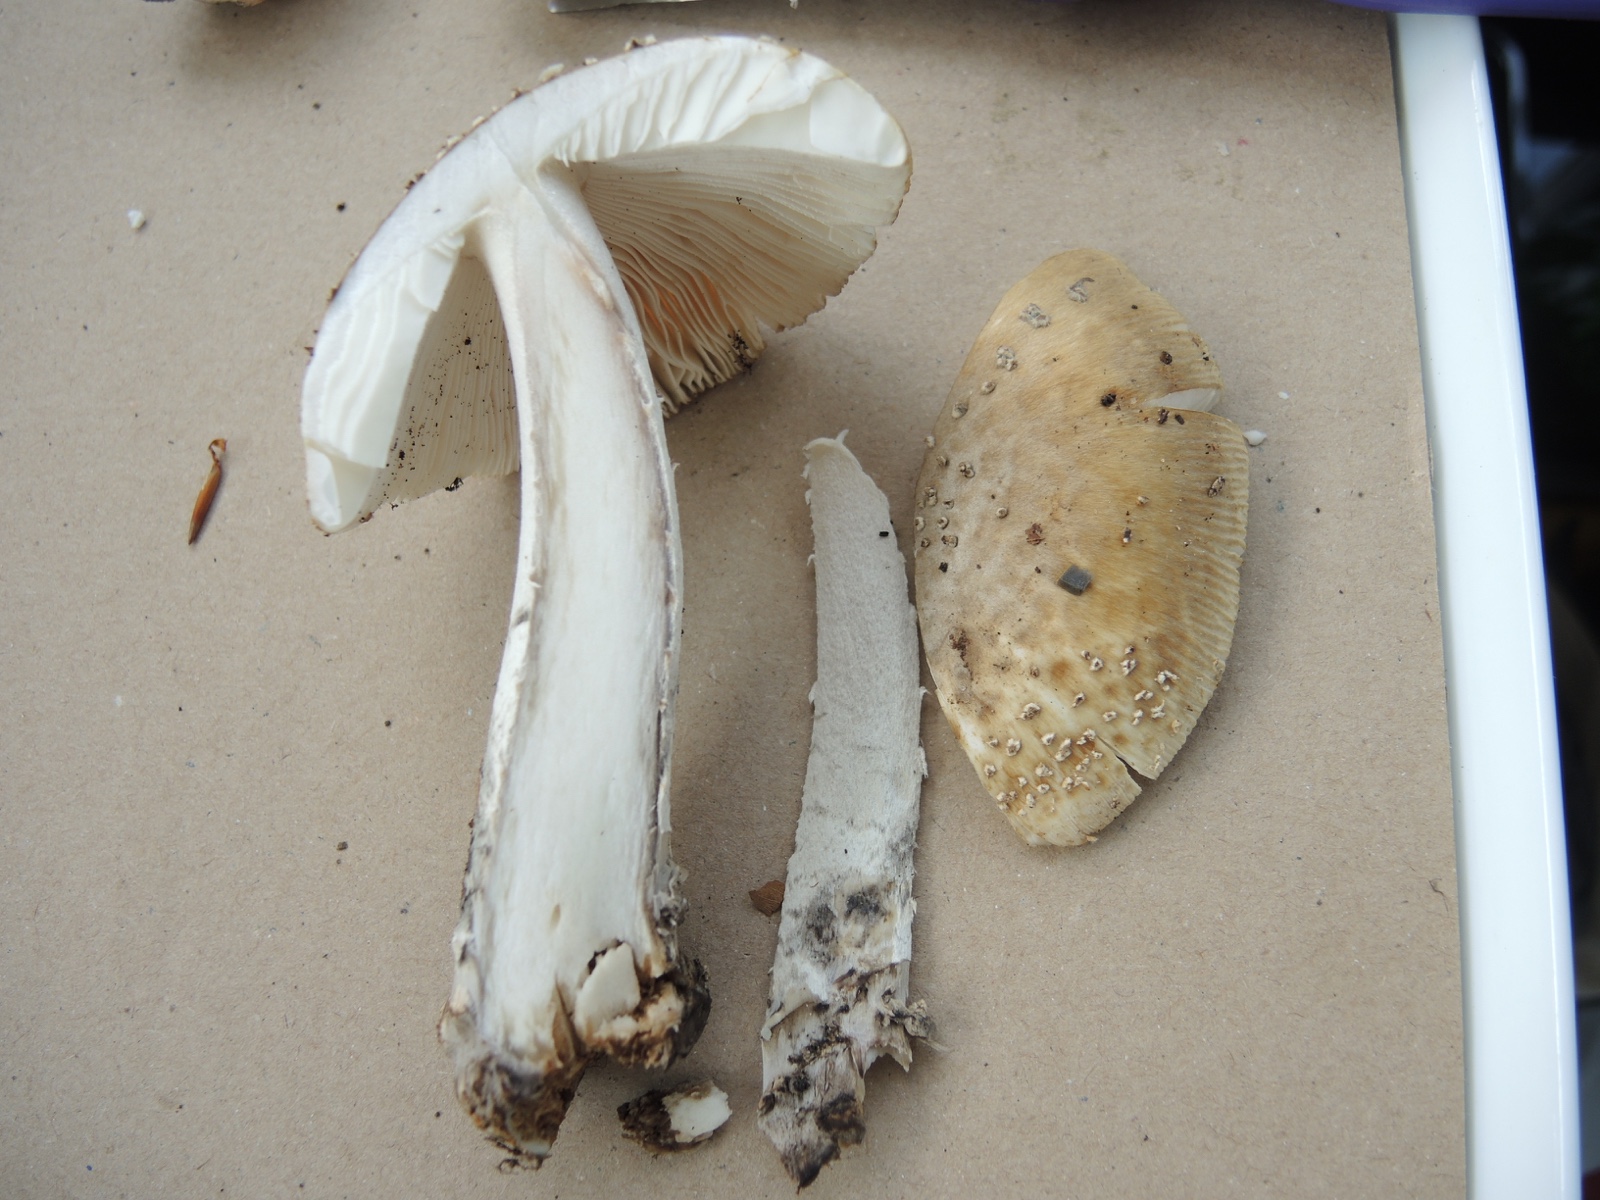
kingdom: Fungi
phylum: Basidiomycota
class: Agaricomycetes
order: Agaricales
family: Amanitaceae
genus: Amanita
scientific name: Amanita ceciliae
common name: stor kam-fluesvamp
